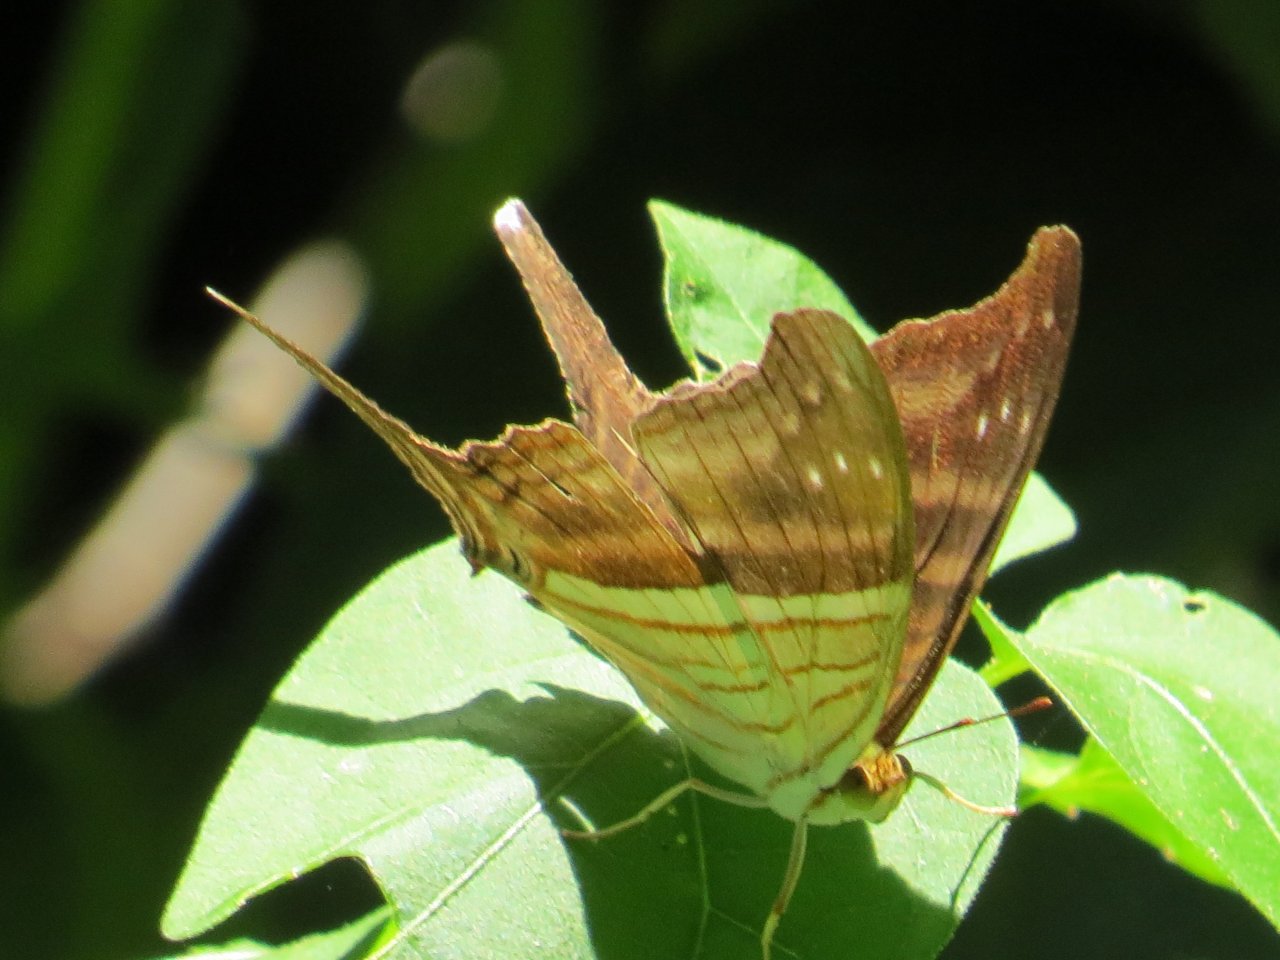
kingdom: Animalia
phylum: Arthropoda
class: Insecta
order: Lepidoptera
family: Nymphalidae
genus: Marpesia
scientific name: Marpesia chiron
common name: Many-banded Daggerwing
